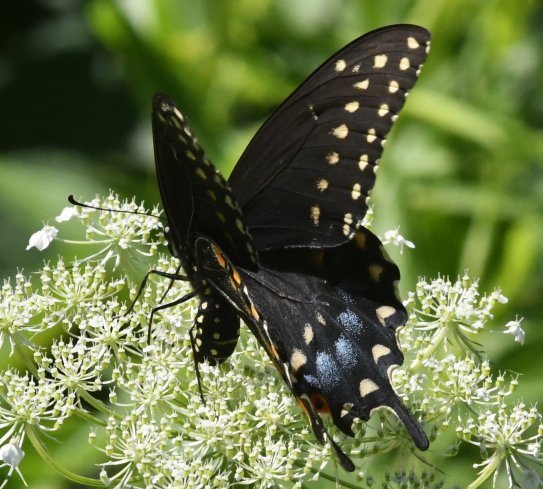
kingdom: Animalia
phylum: Arthropoda
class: Insecta
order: Lepidoptera
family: Papilionidae
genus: Papilio
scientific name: Papilio polyxenes
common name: Black Swallowtail
